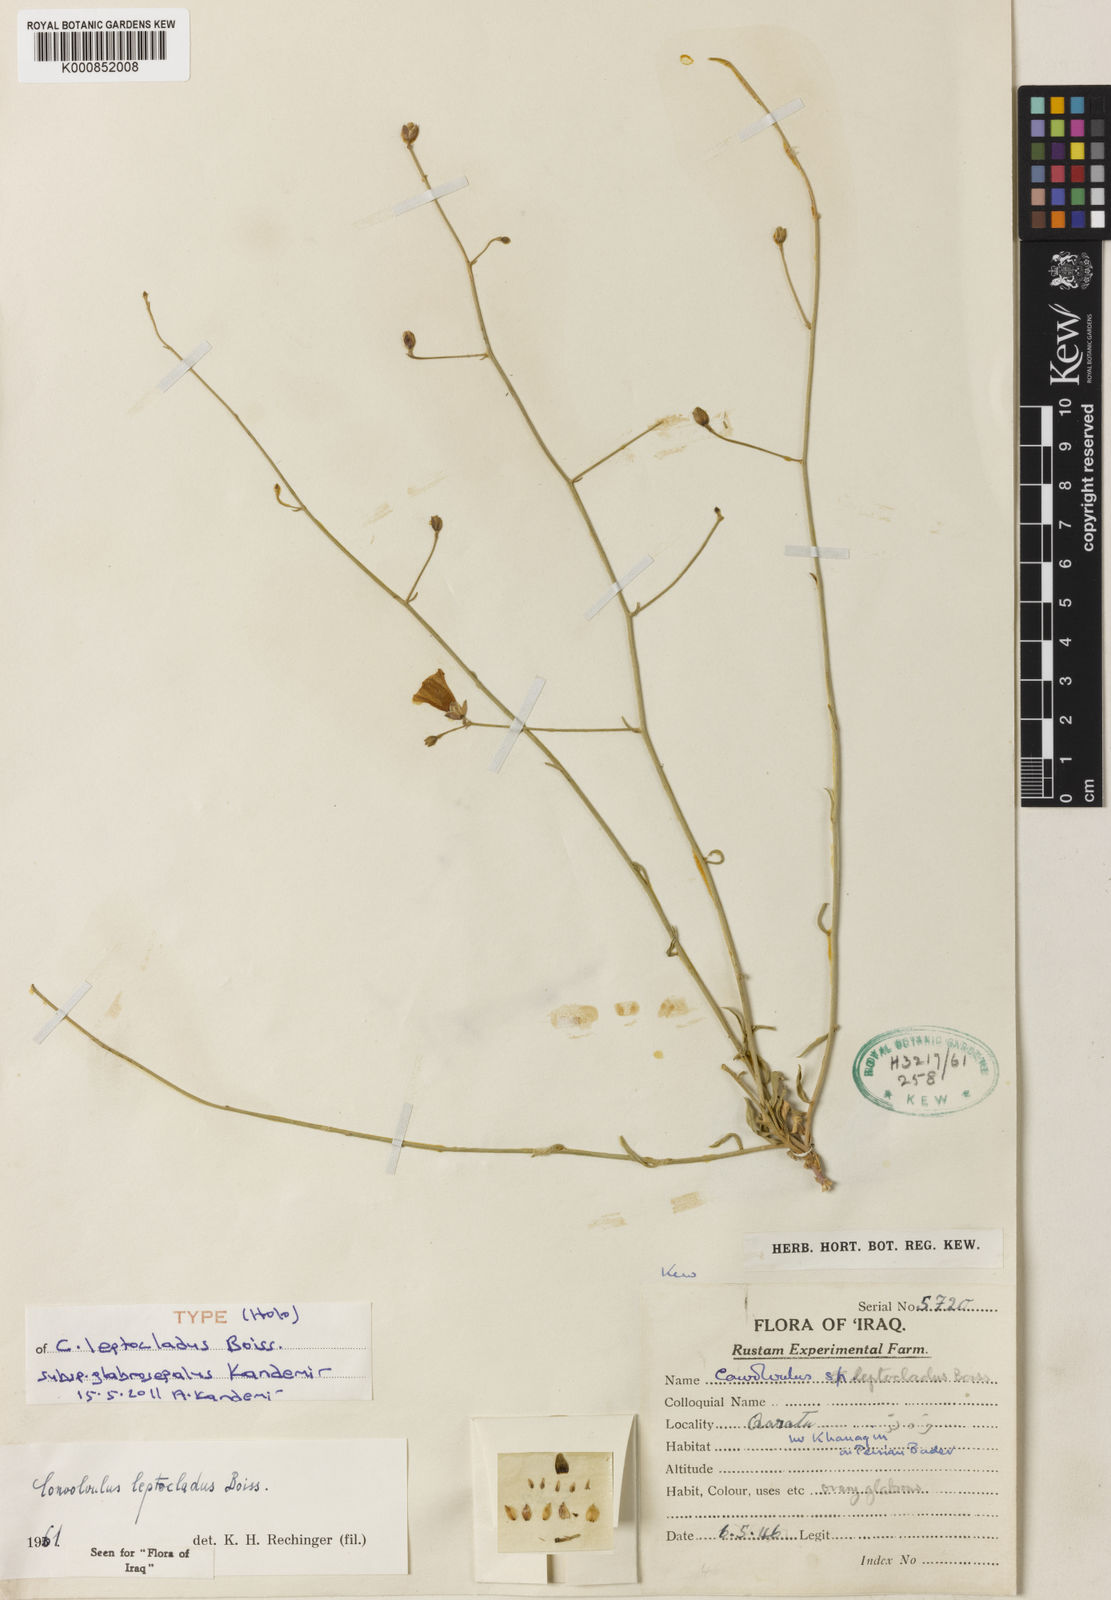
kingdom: Plantae
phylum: Tracheophyta
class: Magnoliopsida
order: Solanales
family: Convolvulaceae
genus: Convolvulus
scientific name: Convolvulus sarothrocladus
